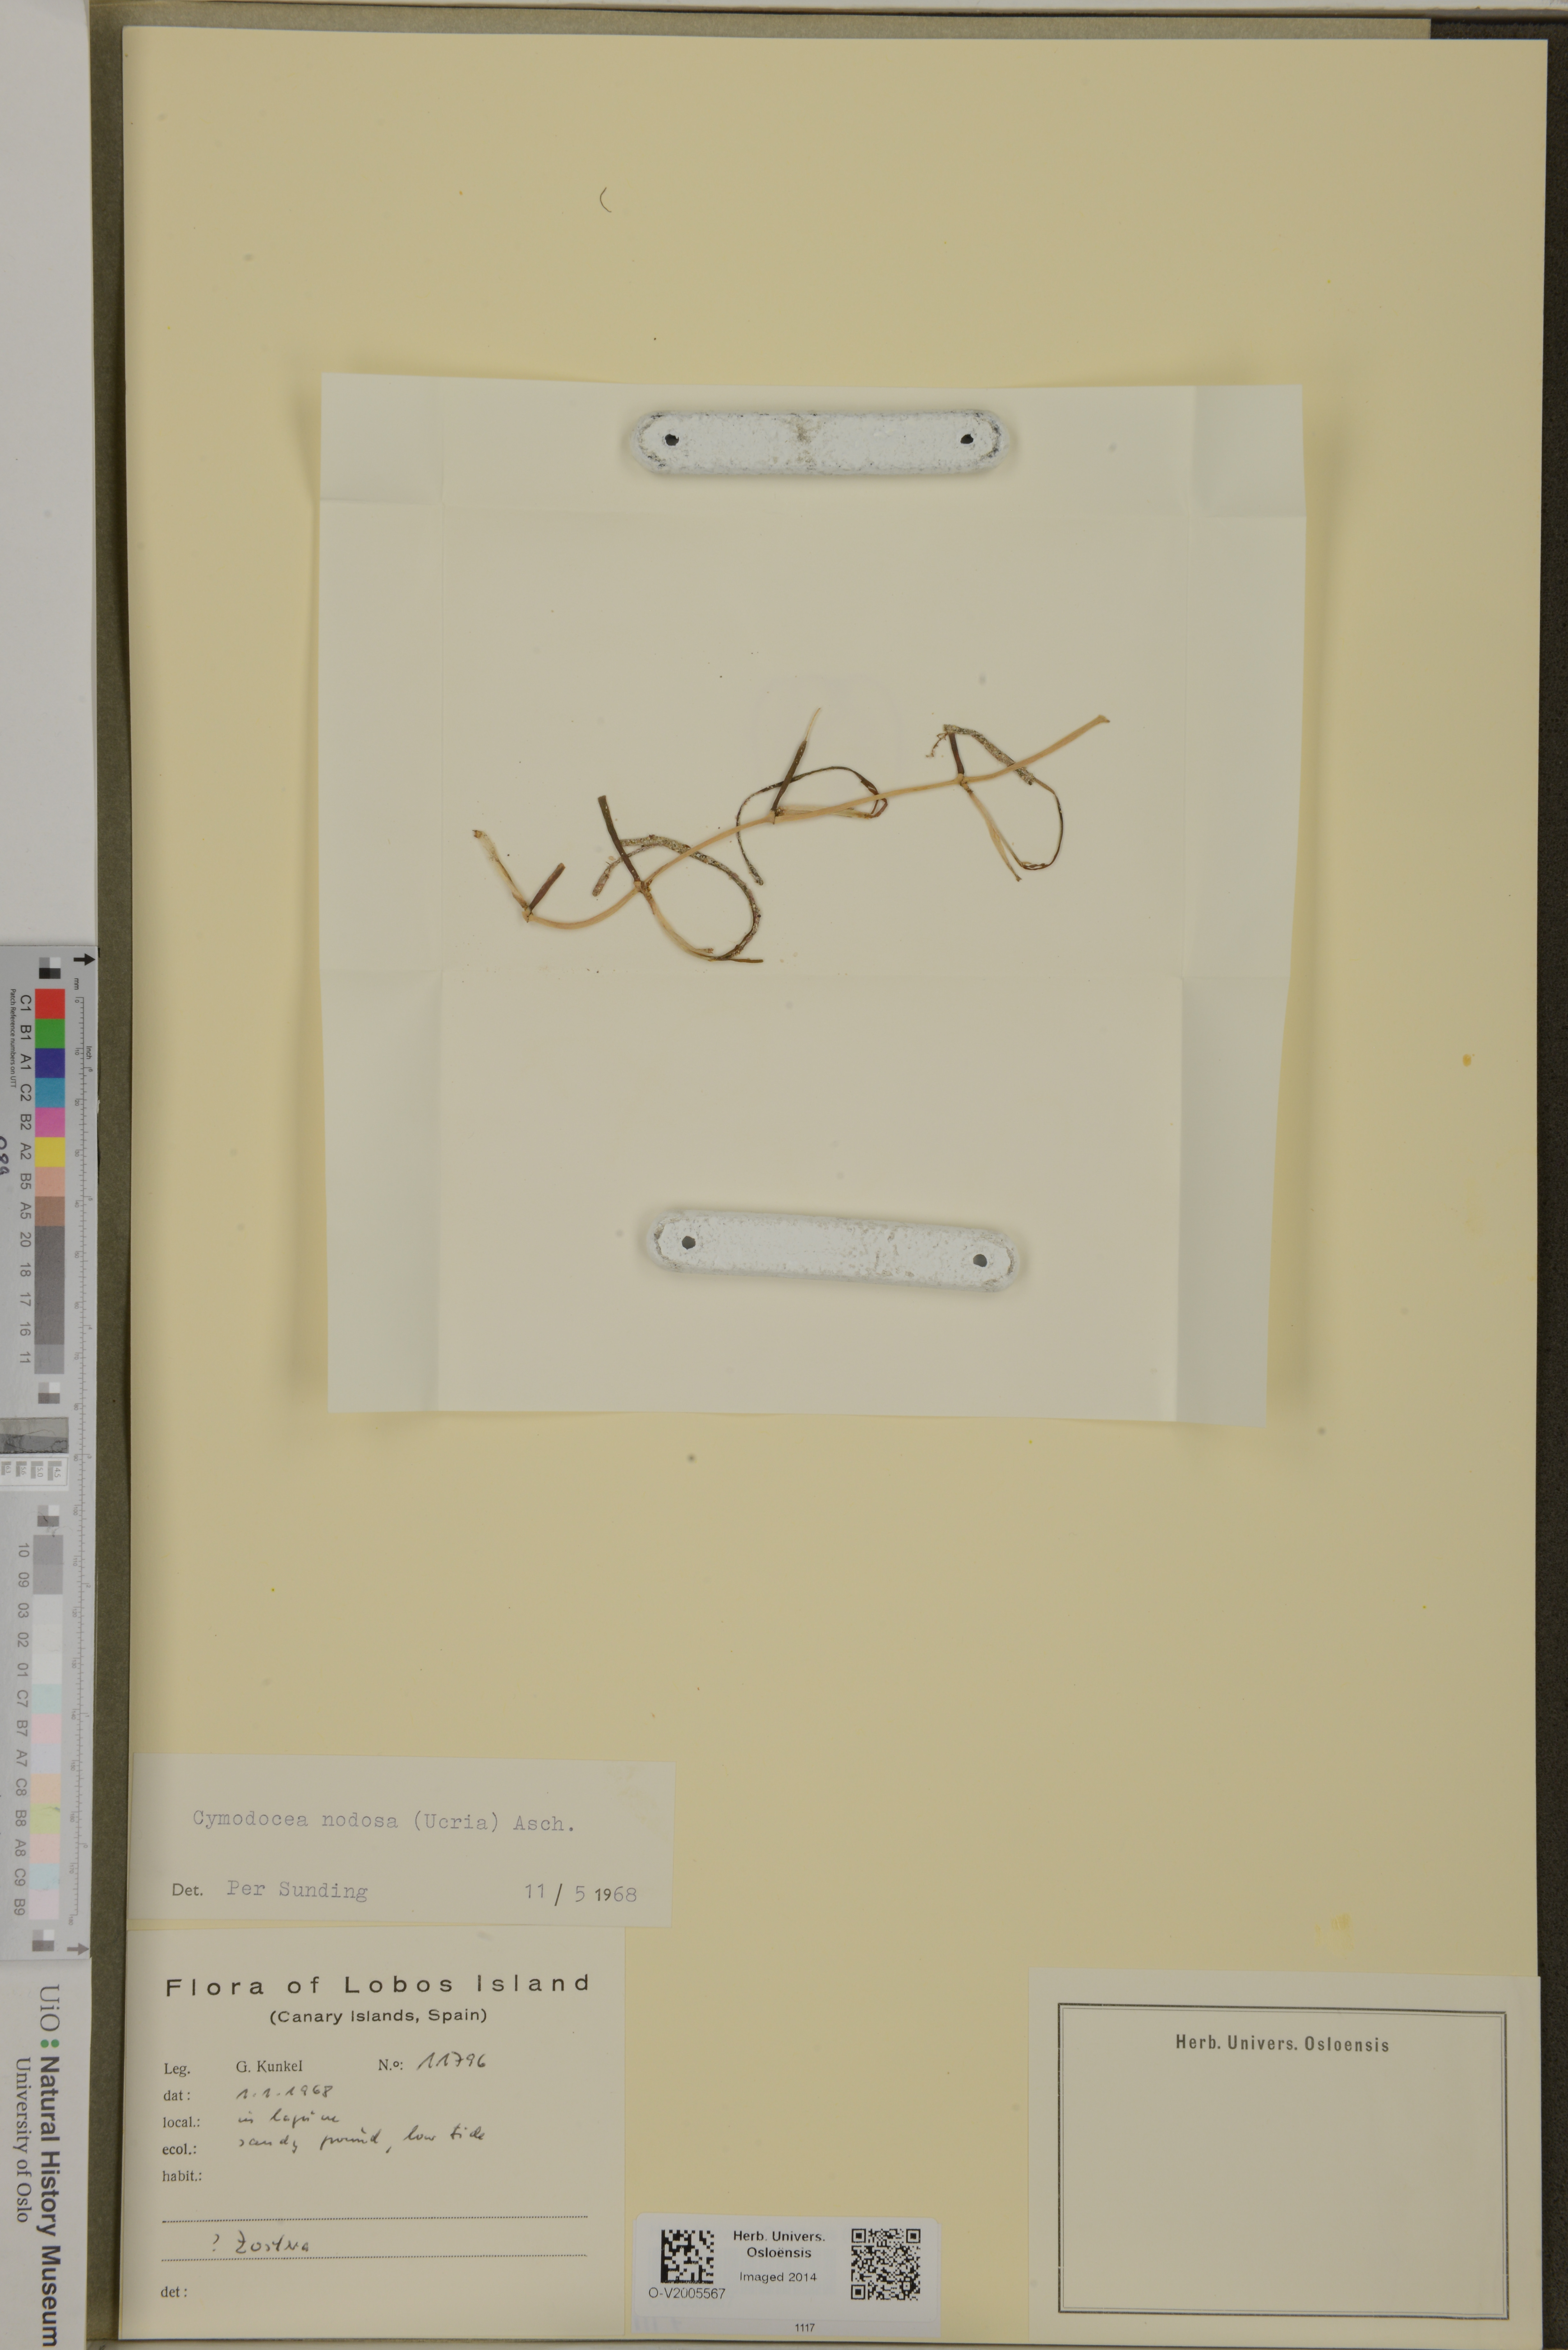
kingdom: Plantae
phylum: Tracheophyta
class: Liliopsida
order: Alismatales
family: Cymodoceaceae
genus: Cymodocea
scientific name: Cymodocea nodosa
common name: Slender seagrass
